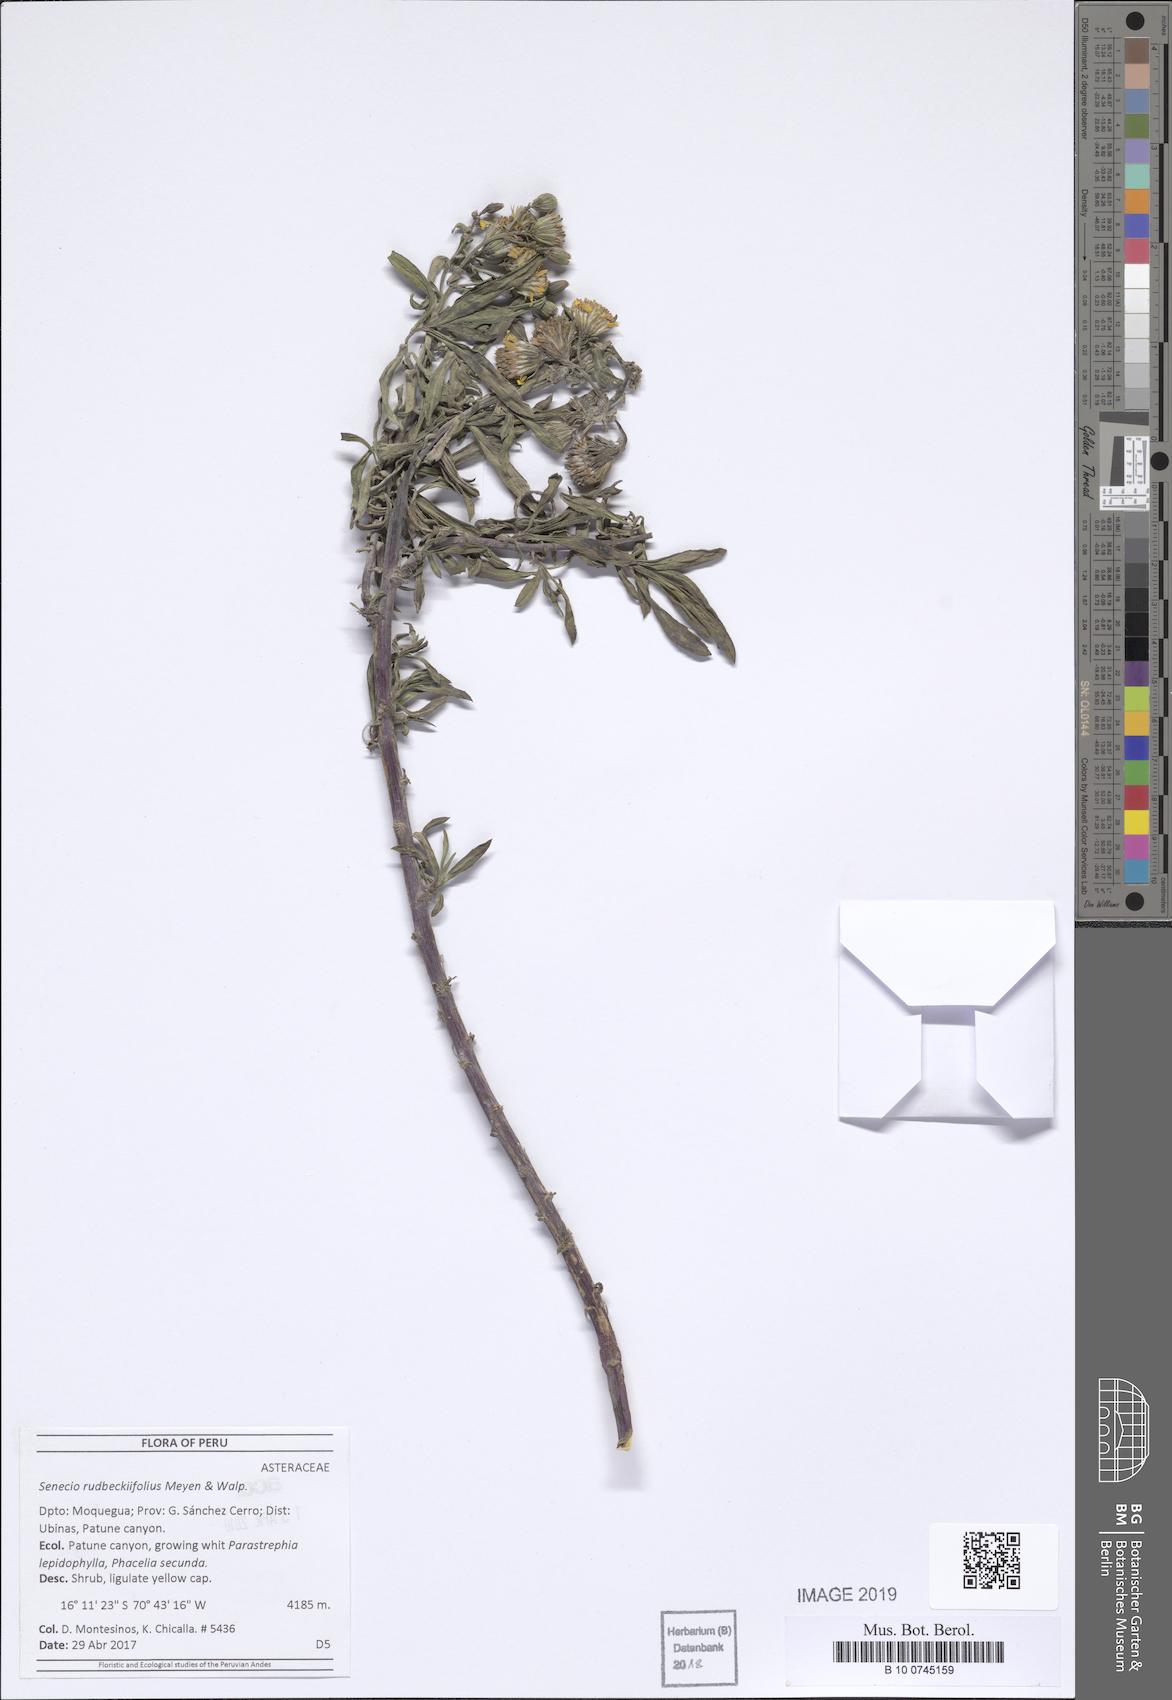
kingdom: Plantae
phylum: Tracheophyta
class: Magnoliopsida
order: Asterales
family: Asteraceae
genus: Senecio
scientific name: Senecio rudbeckiifolius
